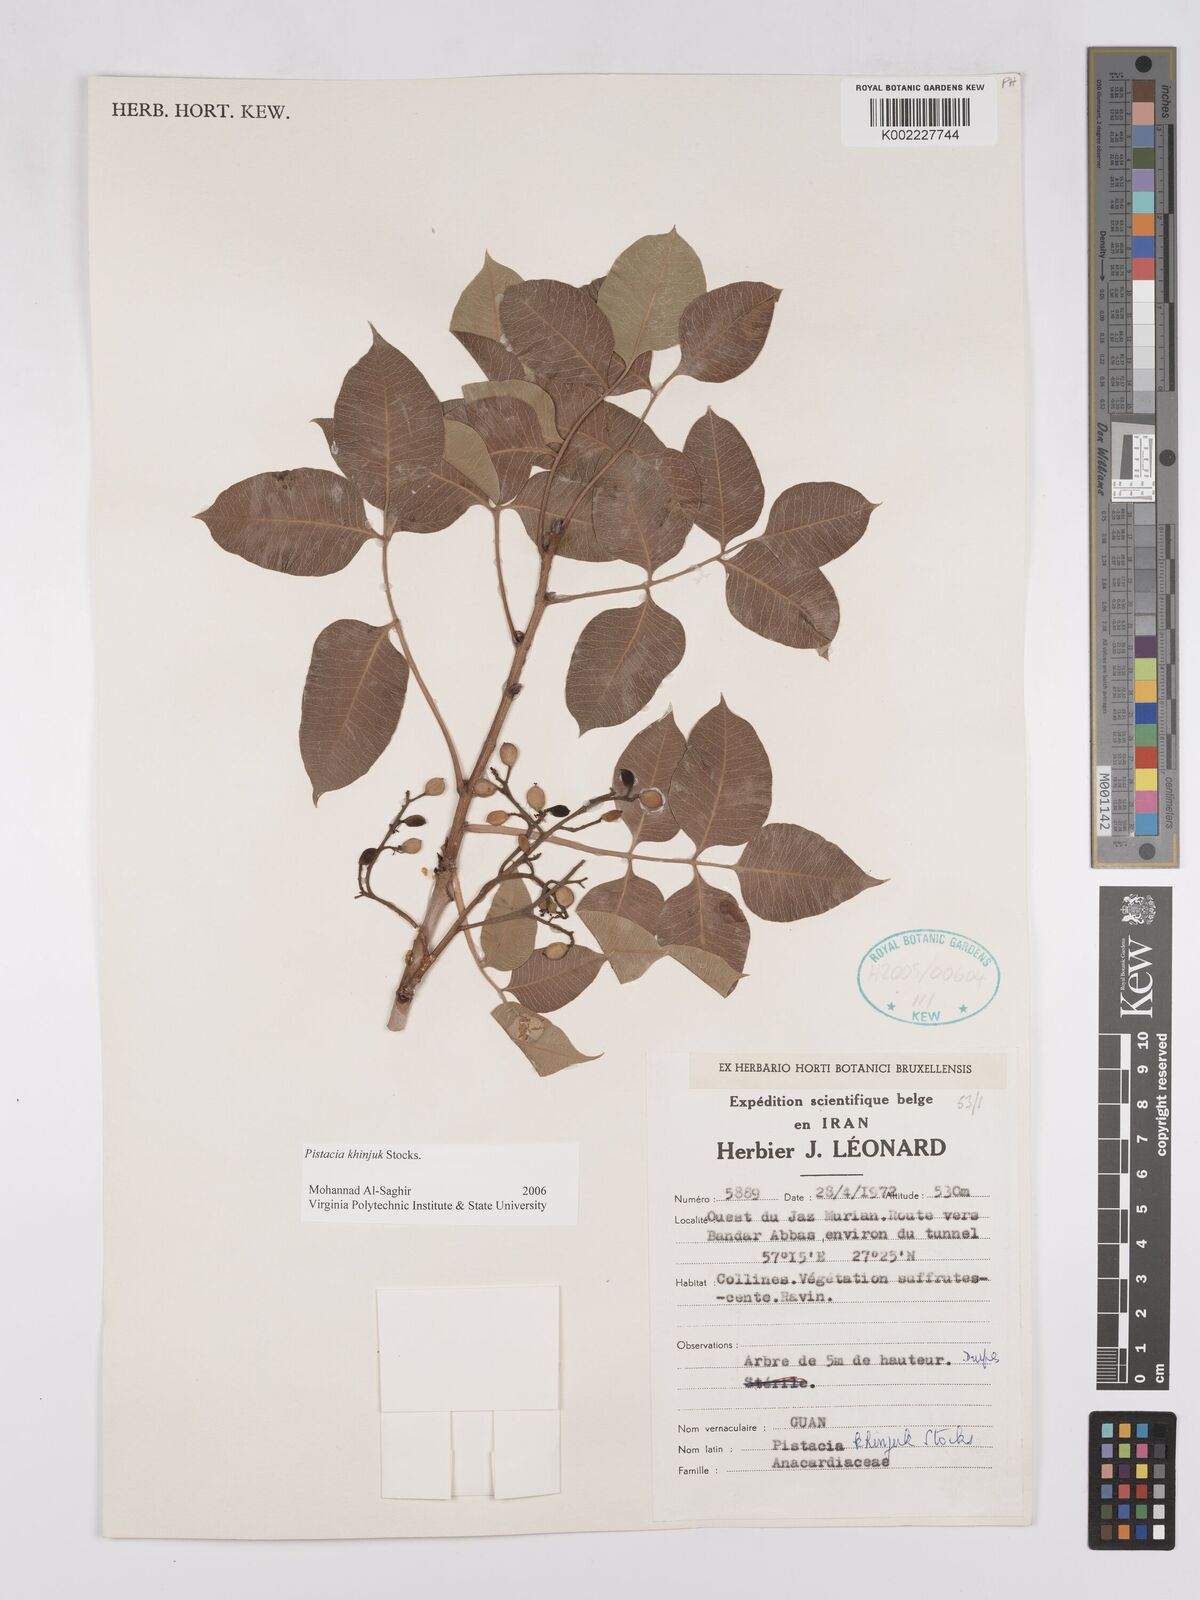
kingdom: Plantae
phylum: Tracheophyta
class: Magnoliopsida
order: Sapindales
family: Anacardiaceae
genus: Pistacia
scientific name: Pistacia khinjuk
